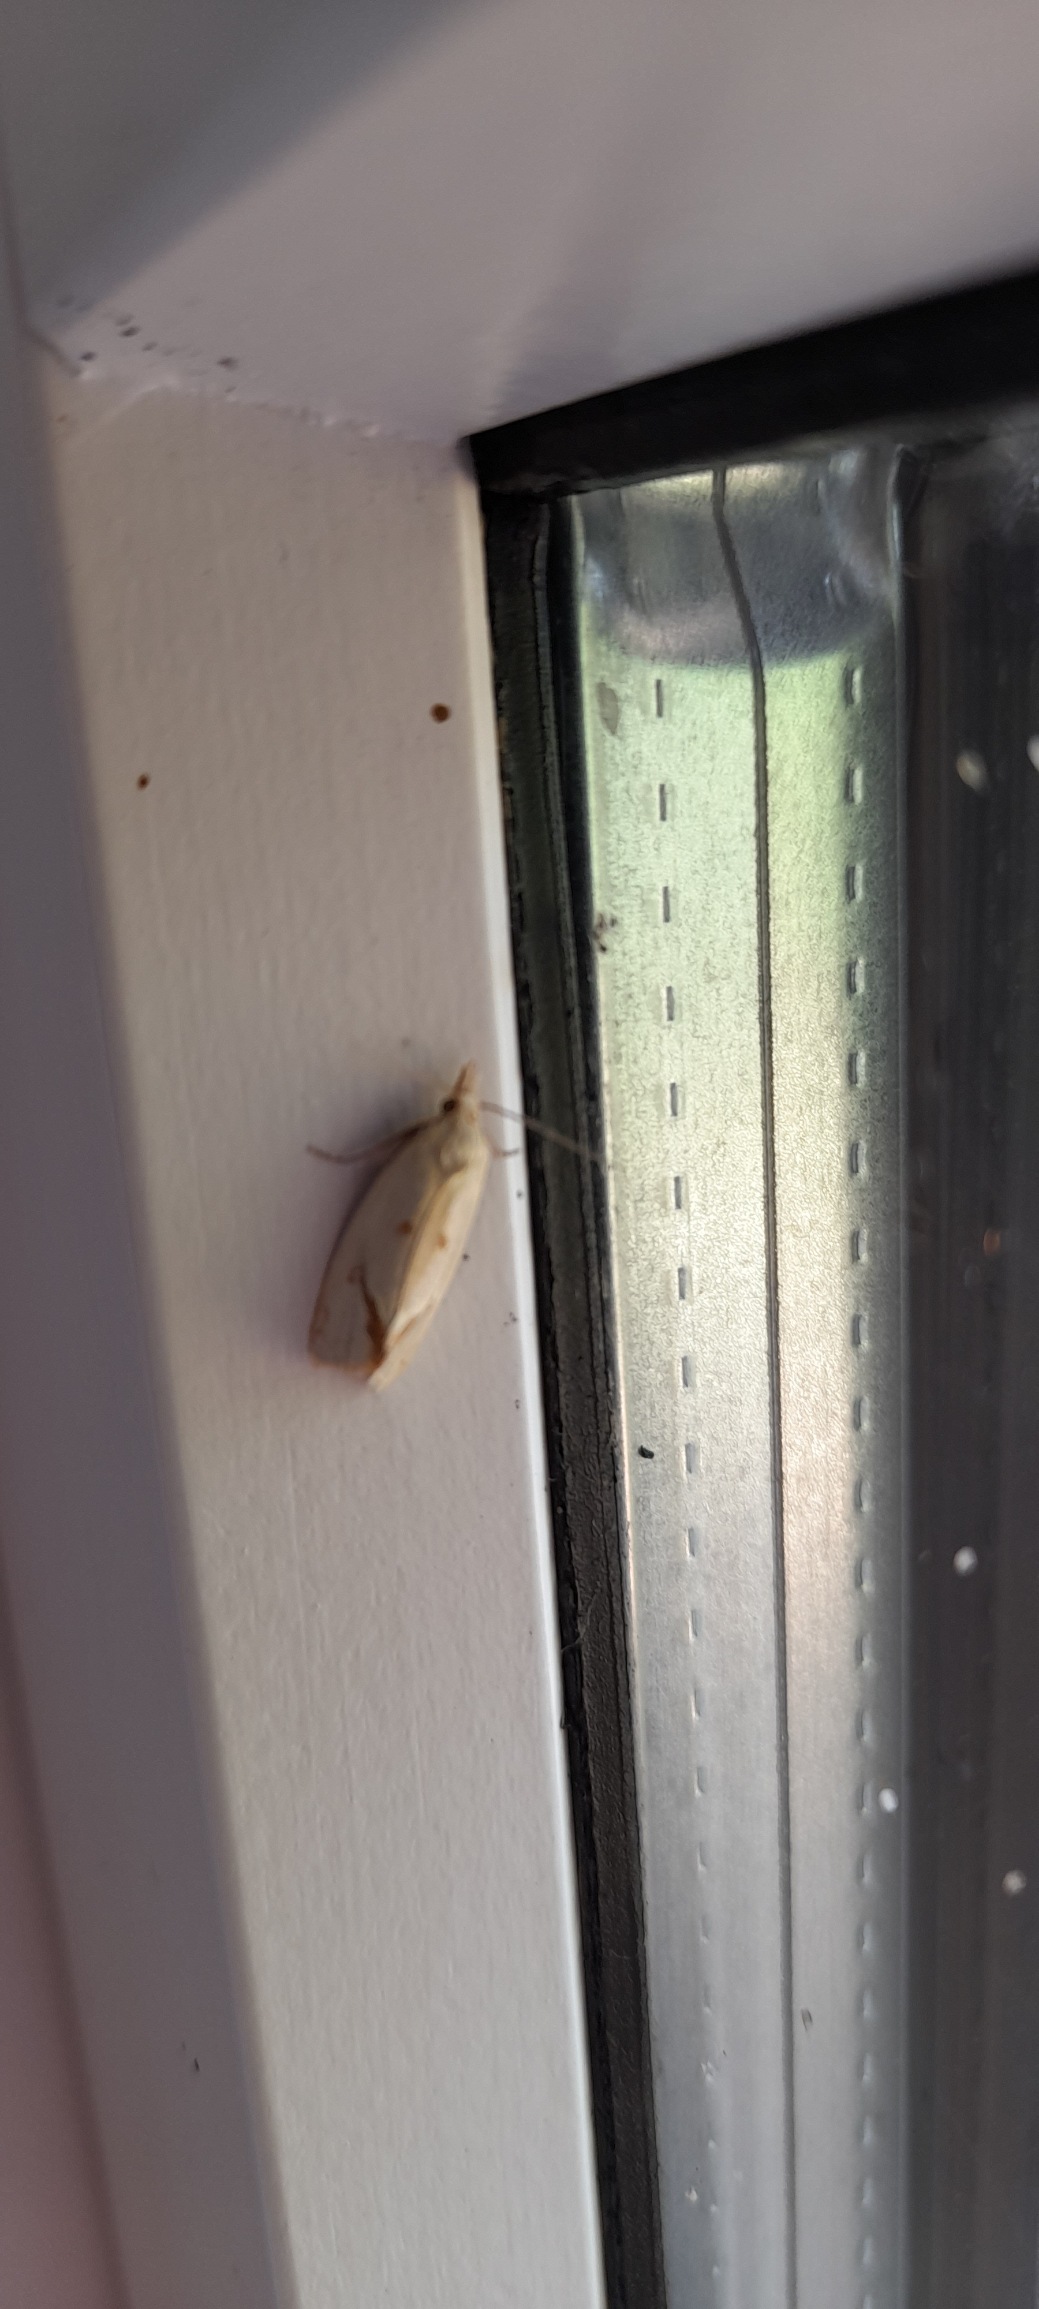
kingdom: Animalia
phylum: Arthropoda
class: Insecta
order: Lepidoptera
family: Tortricidae
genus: Agapeta
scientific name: Agapeta hamana
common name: Tidselgulvikler
